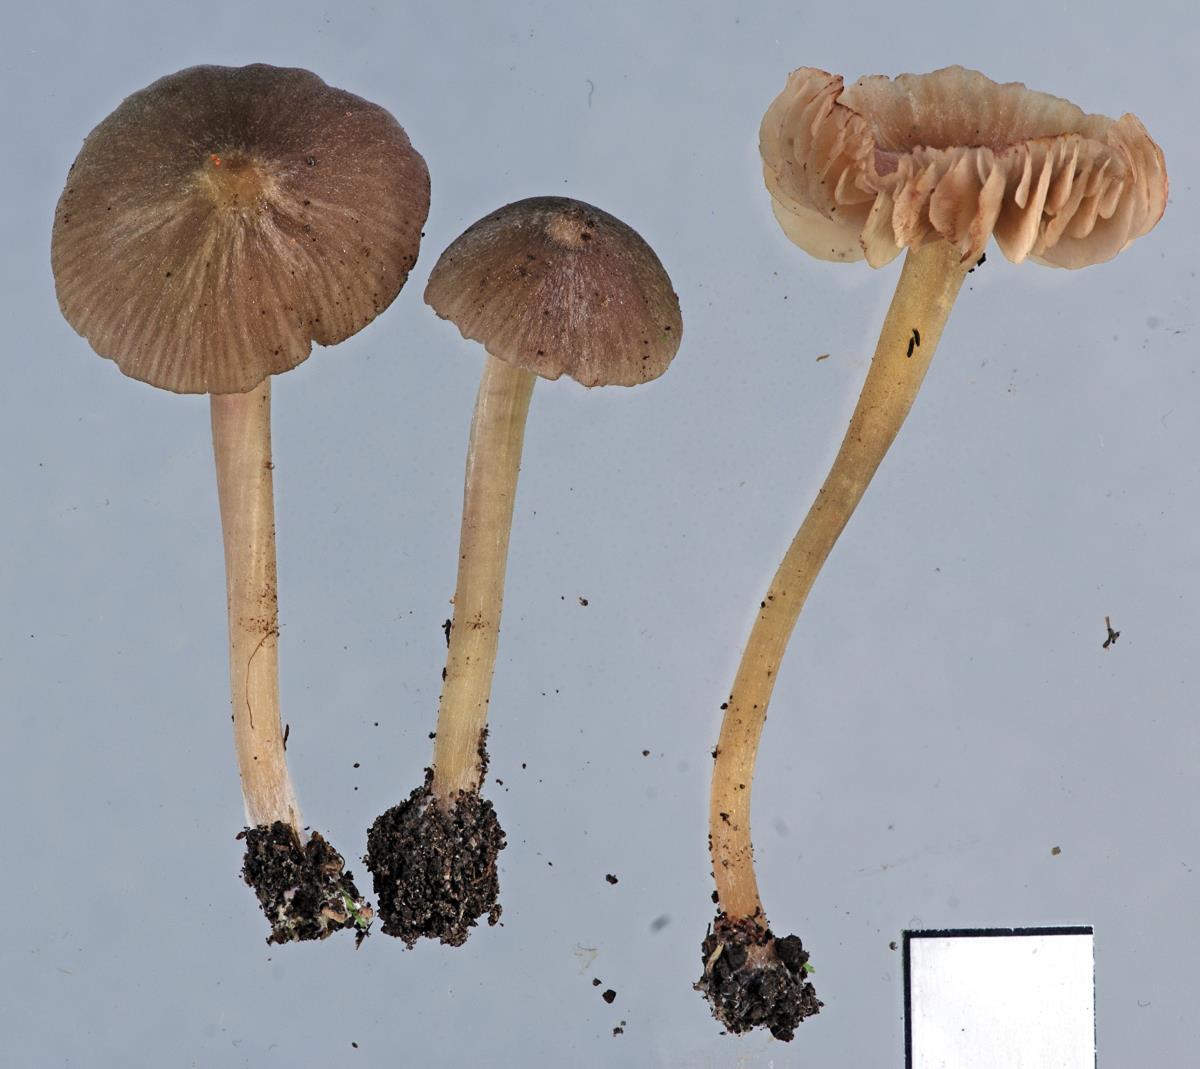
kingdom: Fungi
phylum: Basidiomycota
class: Agaricomycetes
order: Agaricales
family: Entolomataceae
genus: Entoloma
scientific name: Entoloma aromaticum
